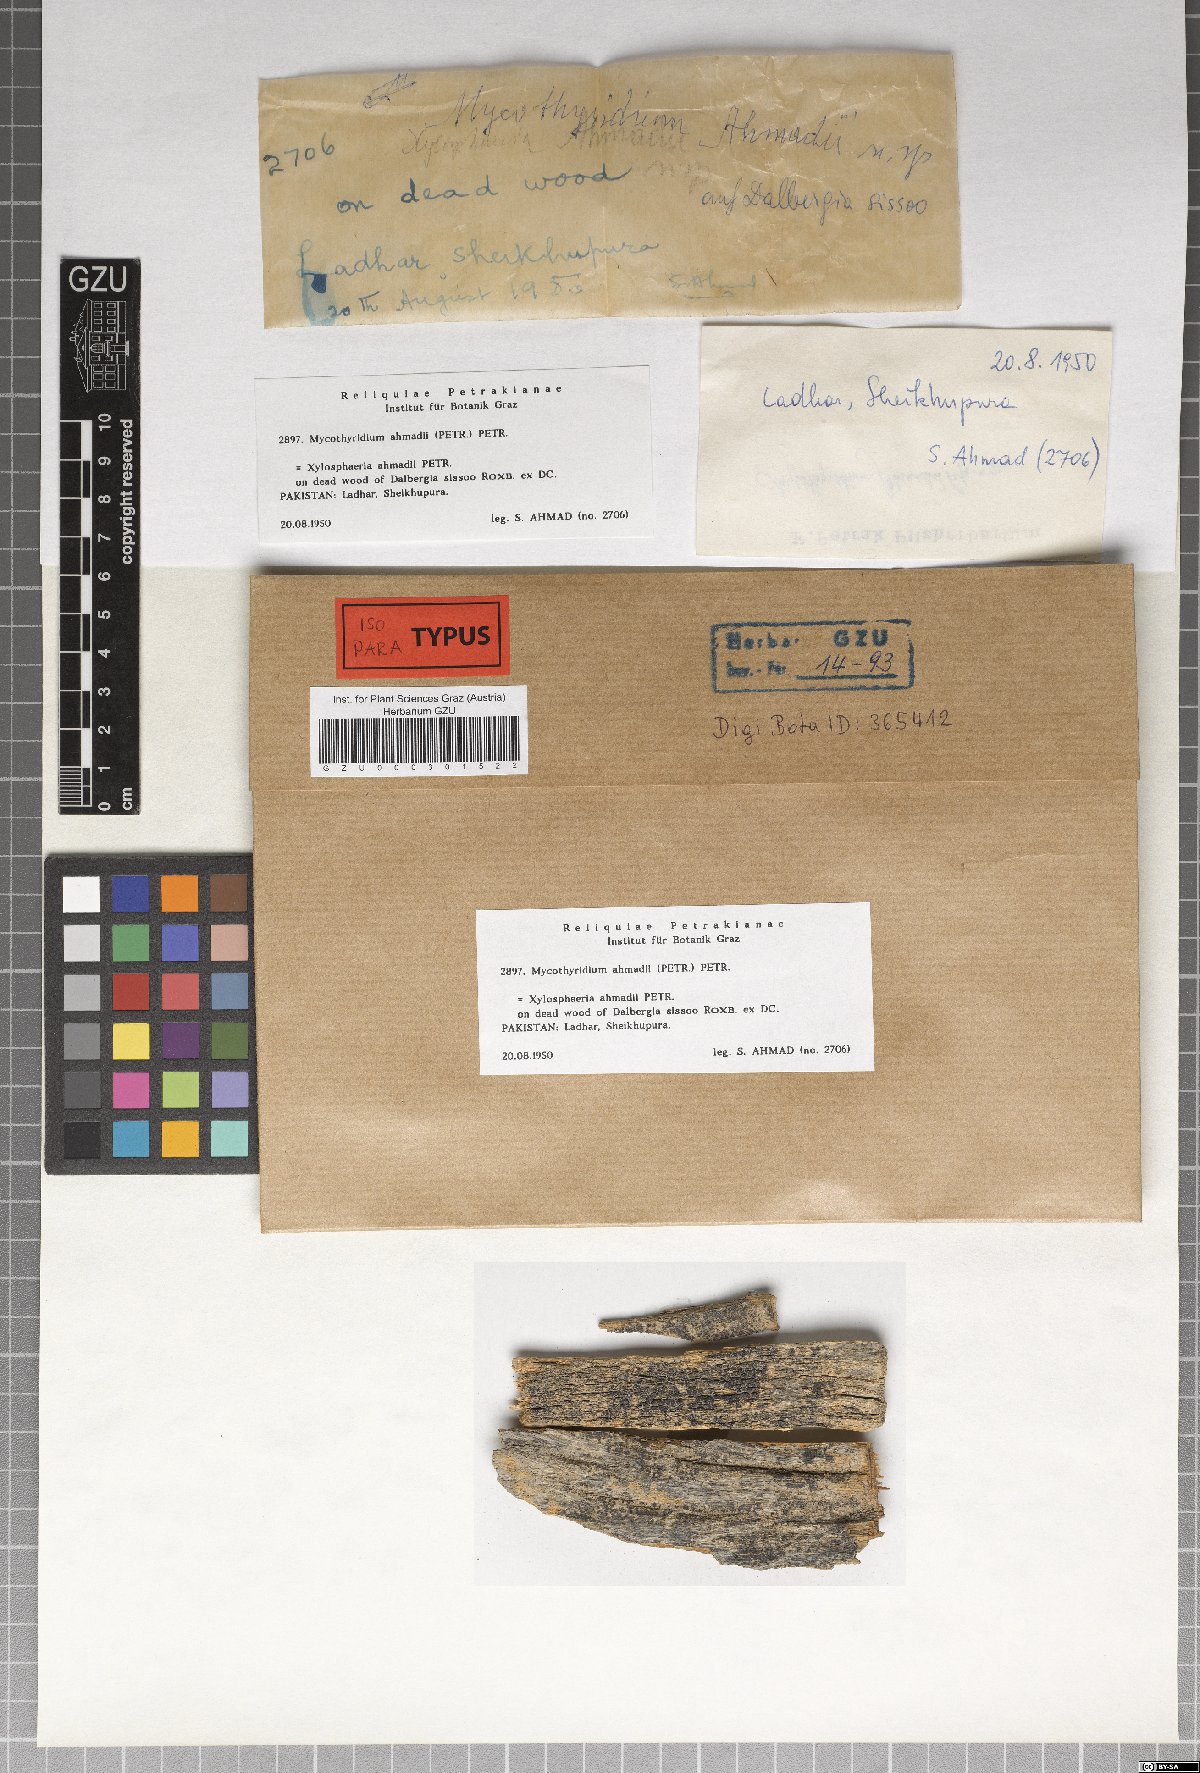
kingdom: Fungi
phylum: Ascomycota
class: Dothideomycetes
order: Dothideales
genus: Mycothyridium
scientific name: Mycothyridium ahmadii
